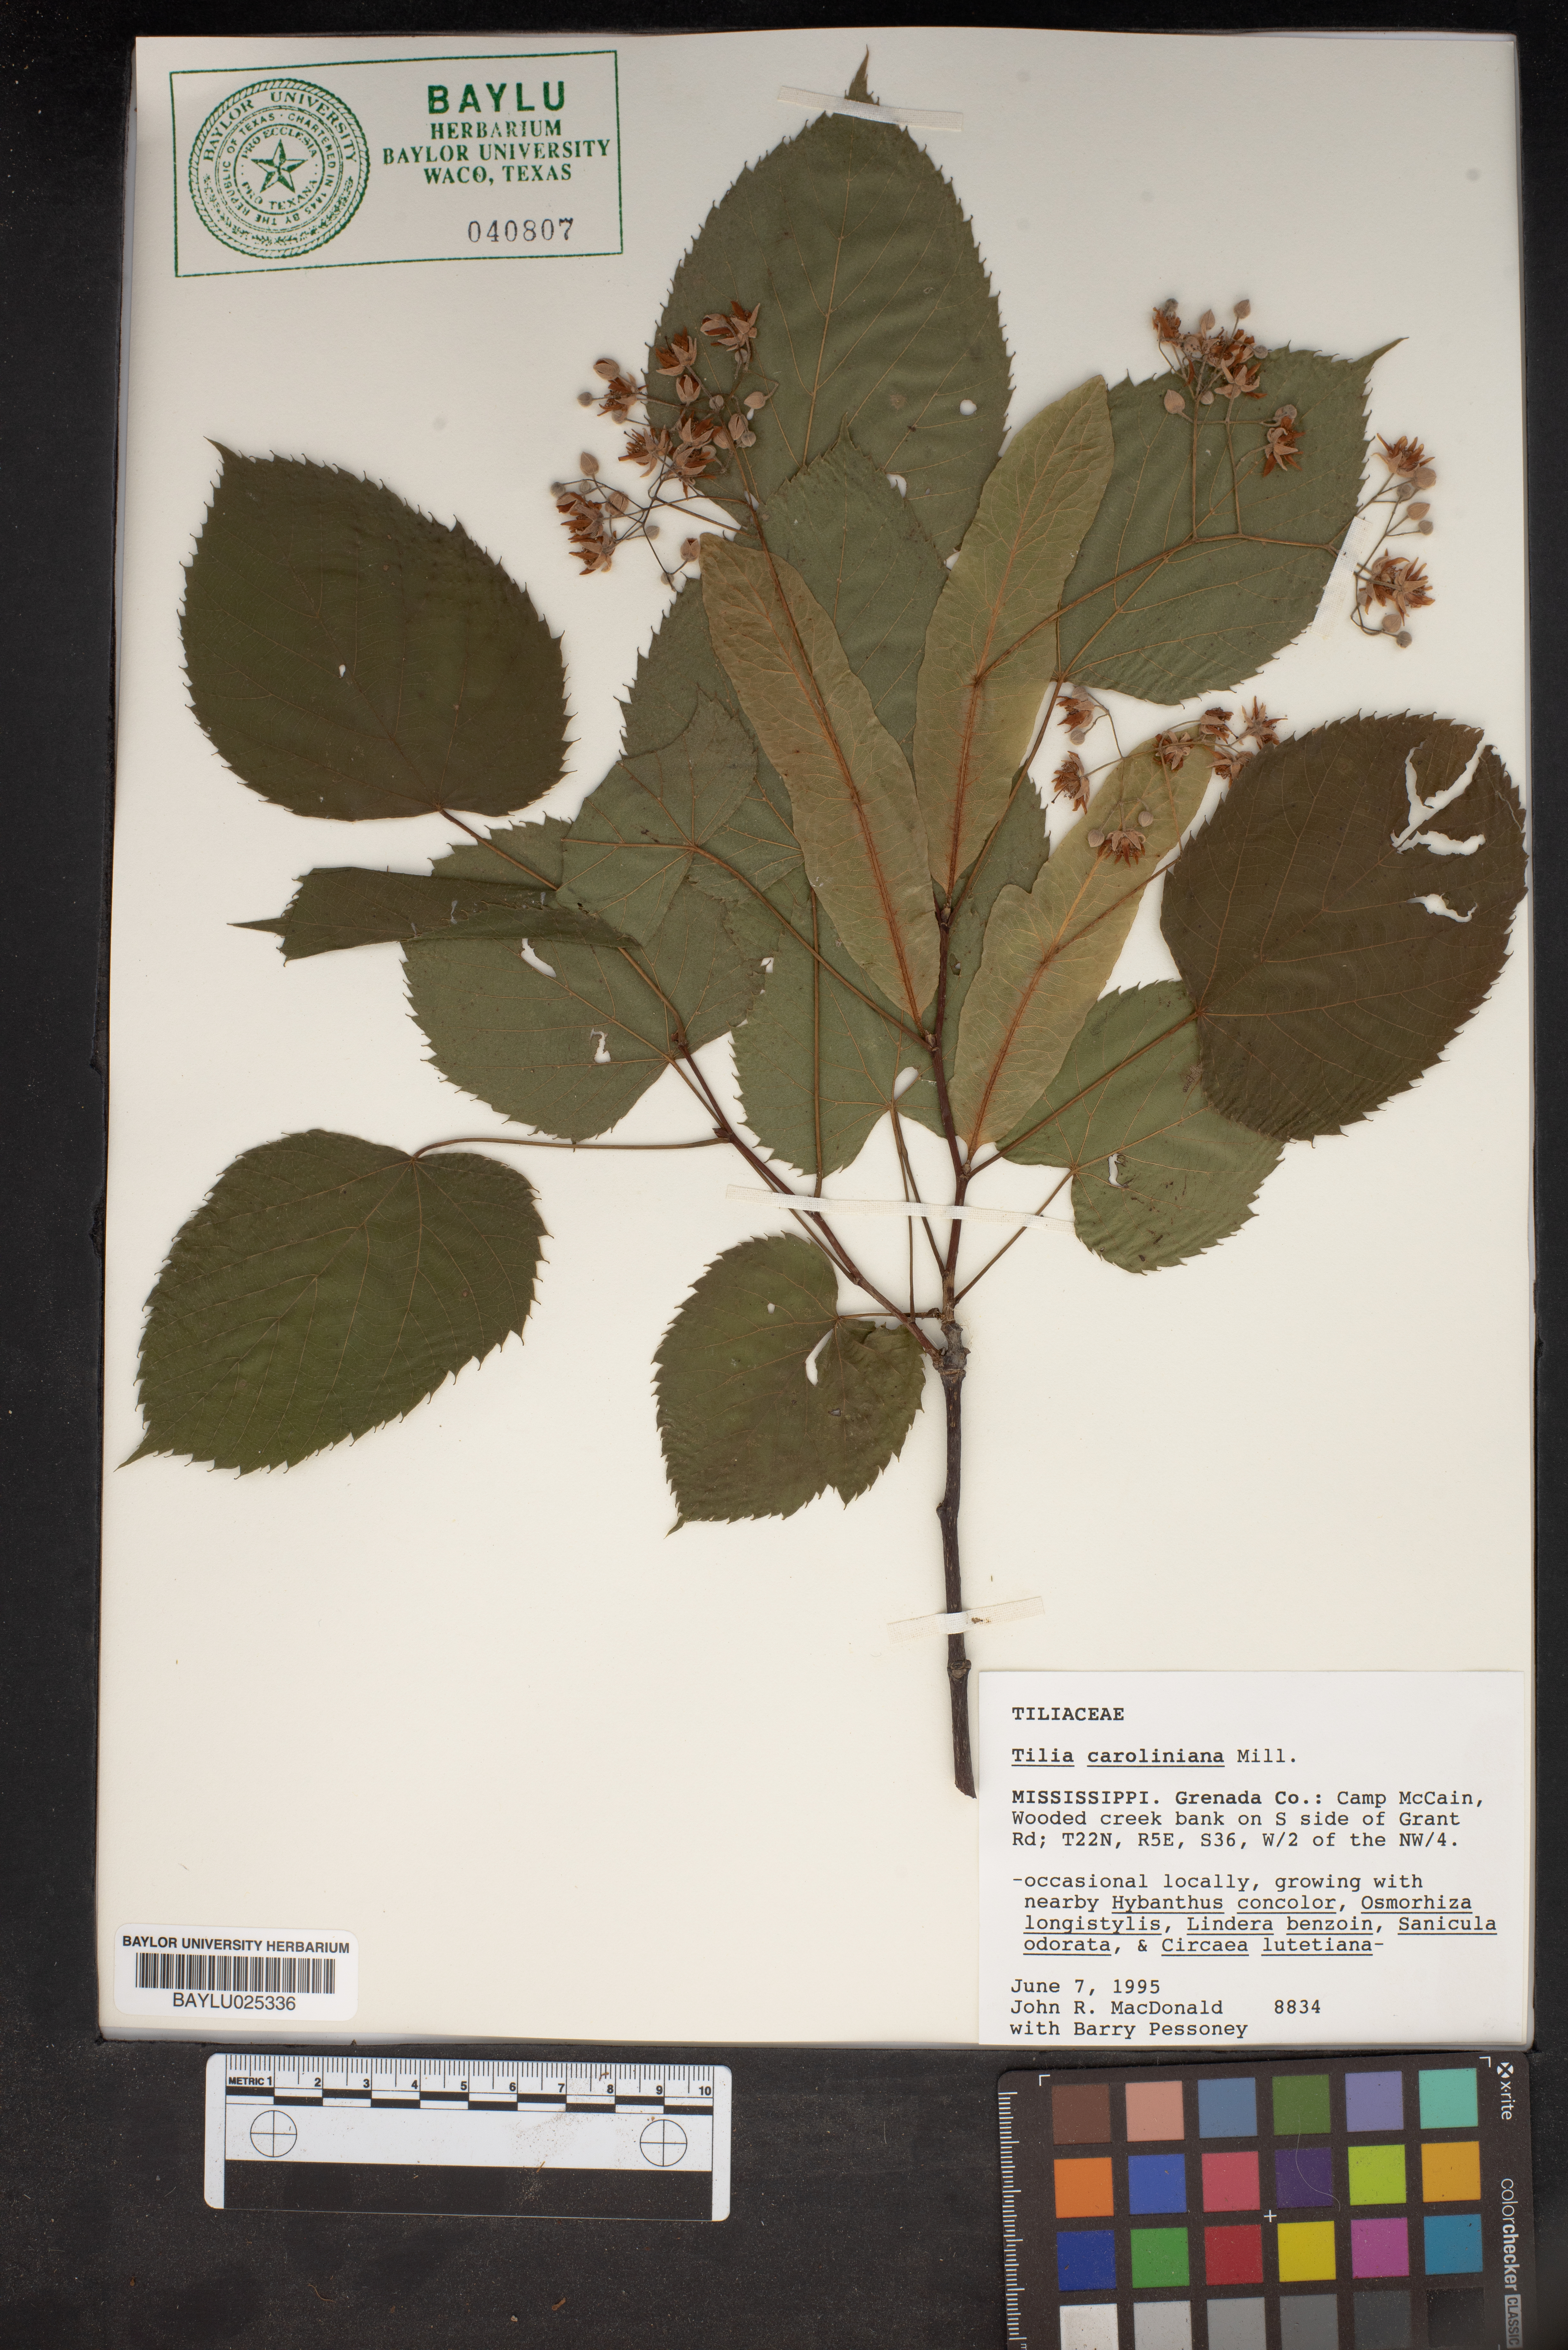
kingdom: Plantae
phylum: Tracheophyta
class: Magnoliopsida
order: Malvales
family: Malvaceae
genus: Tilia
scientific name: Tilia americana
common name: Basswood
